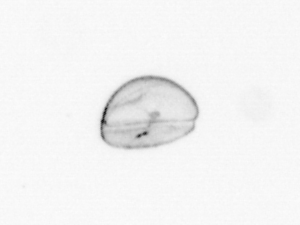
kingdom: Chromista
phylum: Ochrophyta
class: Bacillariophyceae
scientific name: Bacillariophyceae
